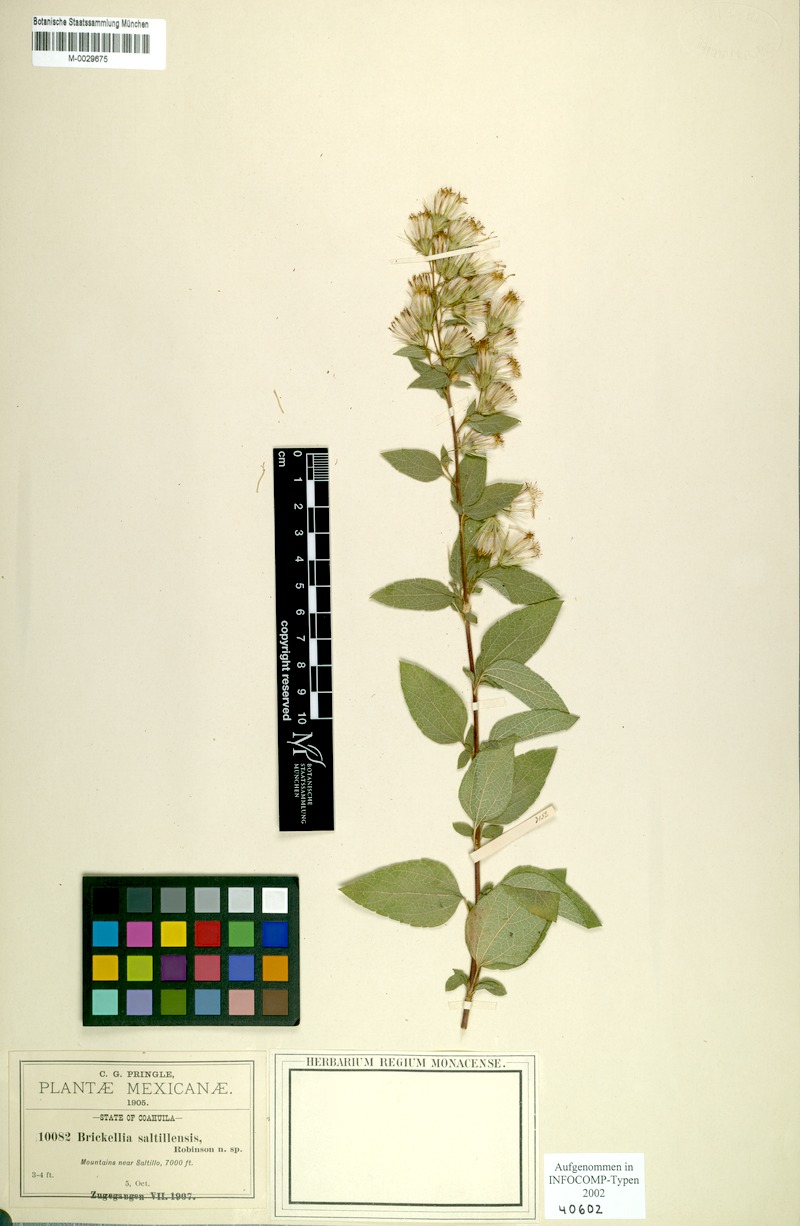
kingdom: Plantae
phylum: Tracheophyta
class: Magnoliopsida
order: Asterales
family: Asteraceae
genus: Brickellia
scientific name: Brickellia secundiflora
